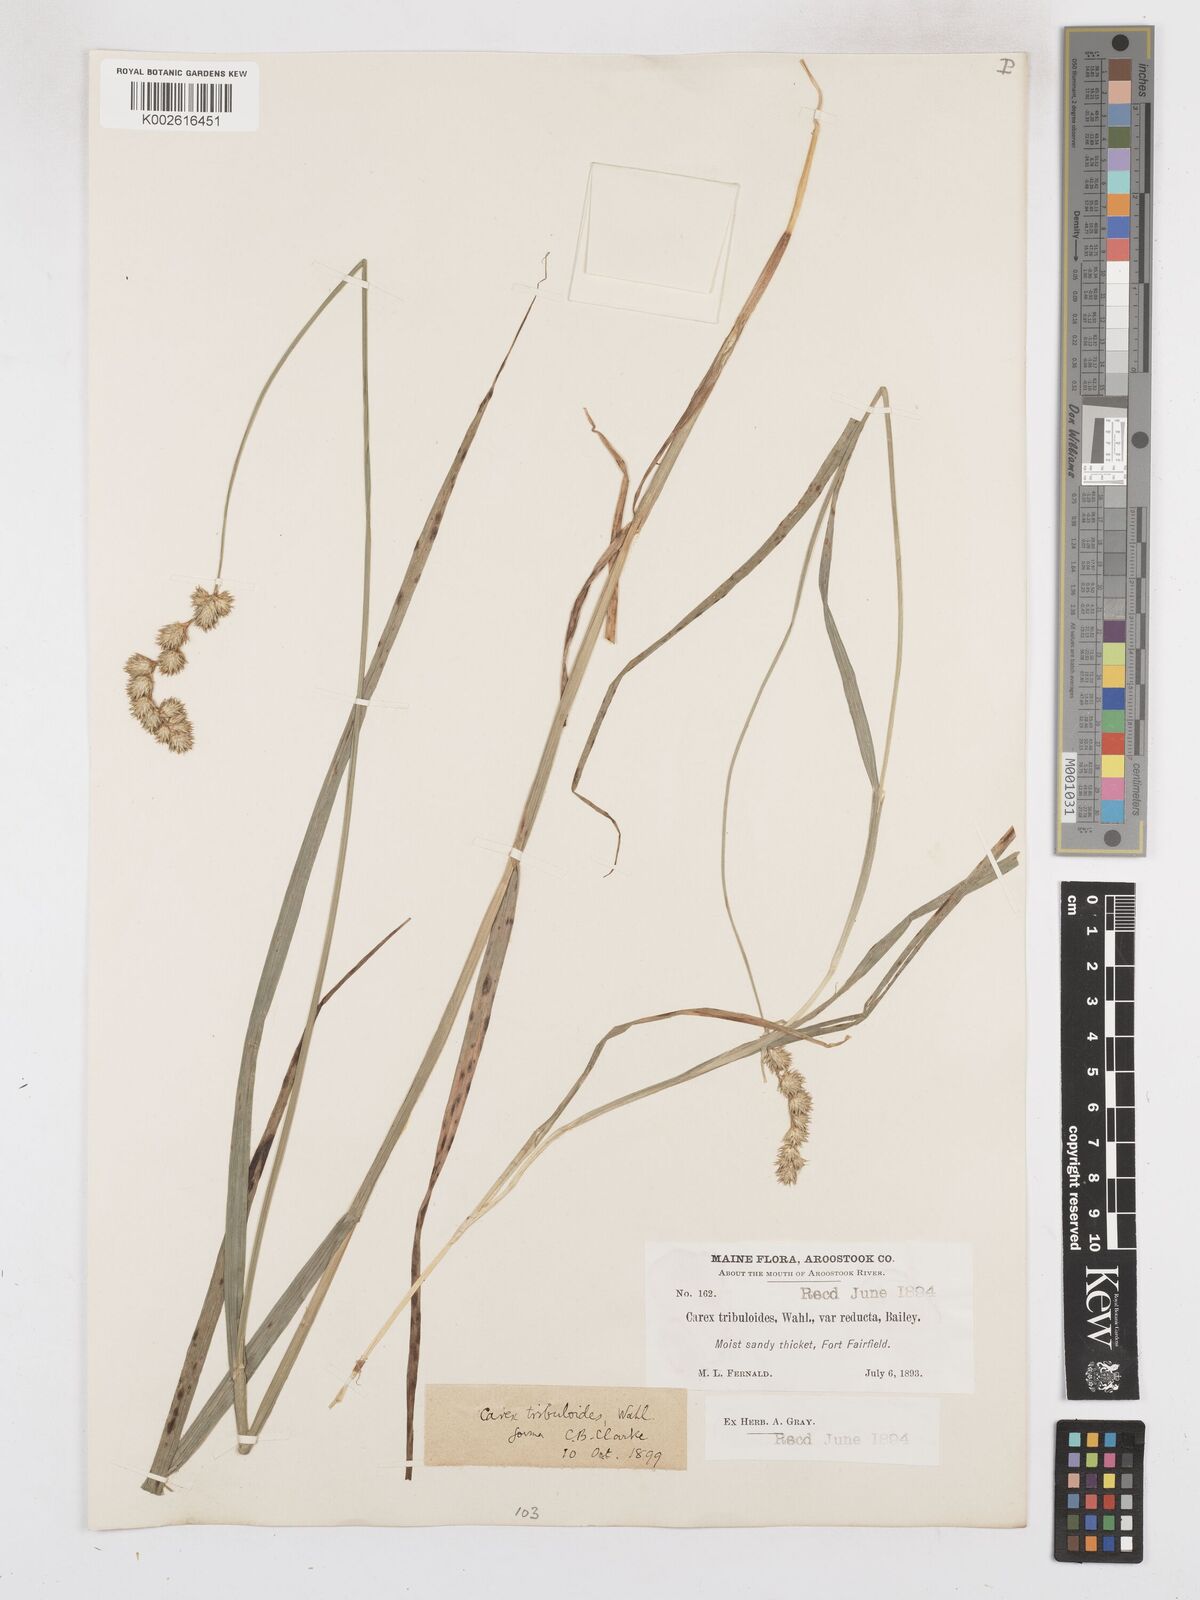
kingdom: Plantae
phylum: Tracheophyta
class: Liliopsida
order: Poales
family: Cyperaceae
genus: Carex
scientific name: Carex tribuloides
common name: Blunt broom sedge
